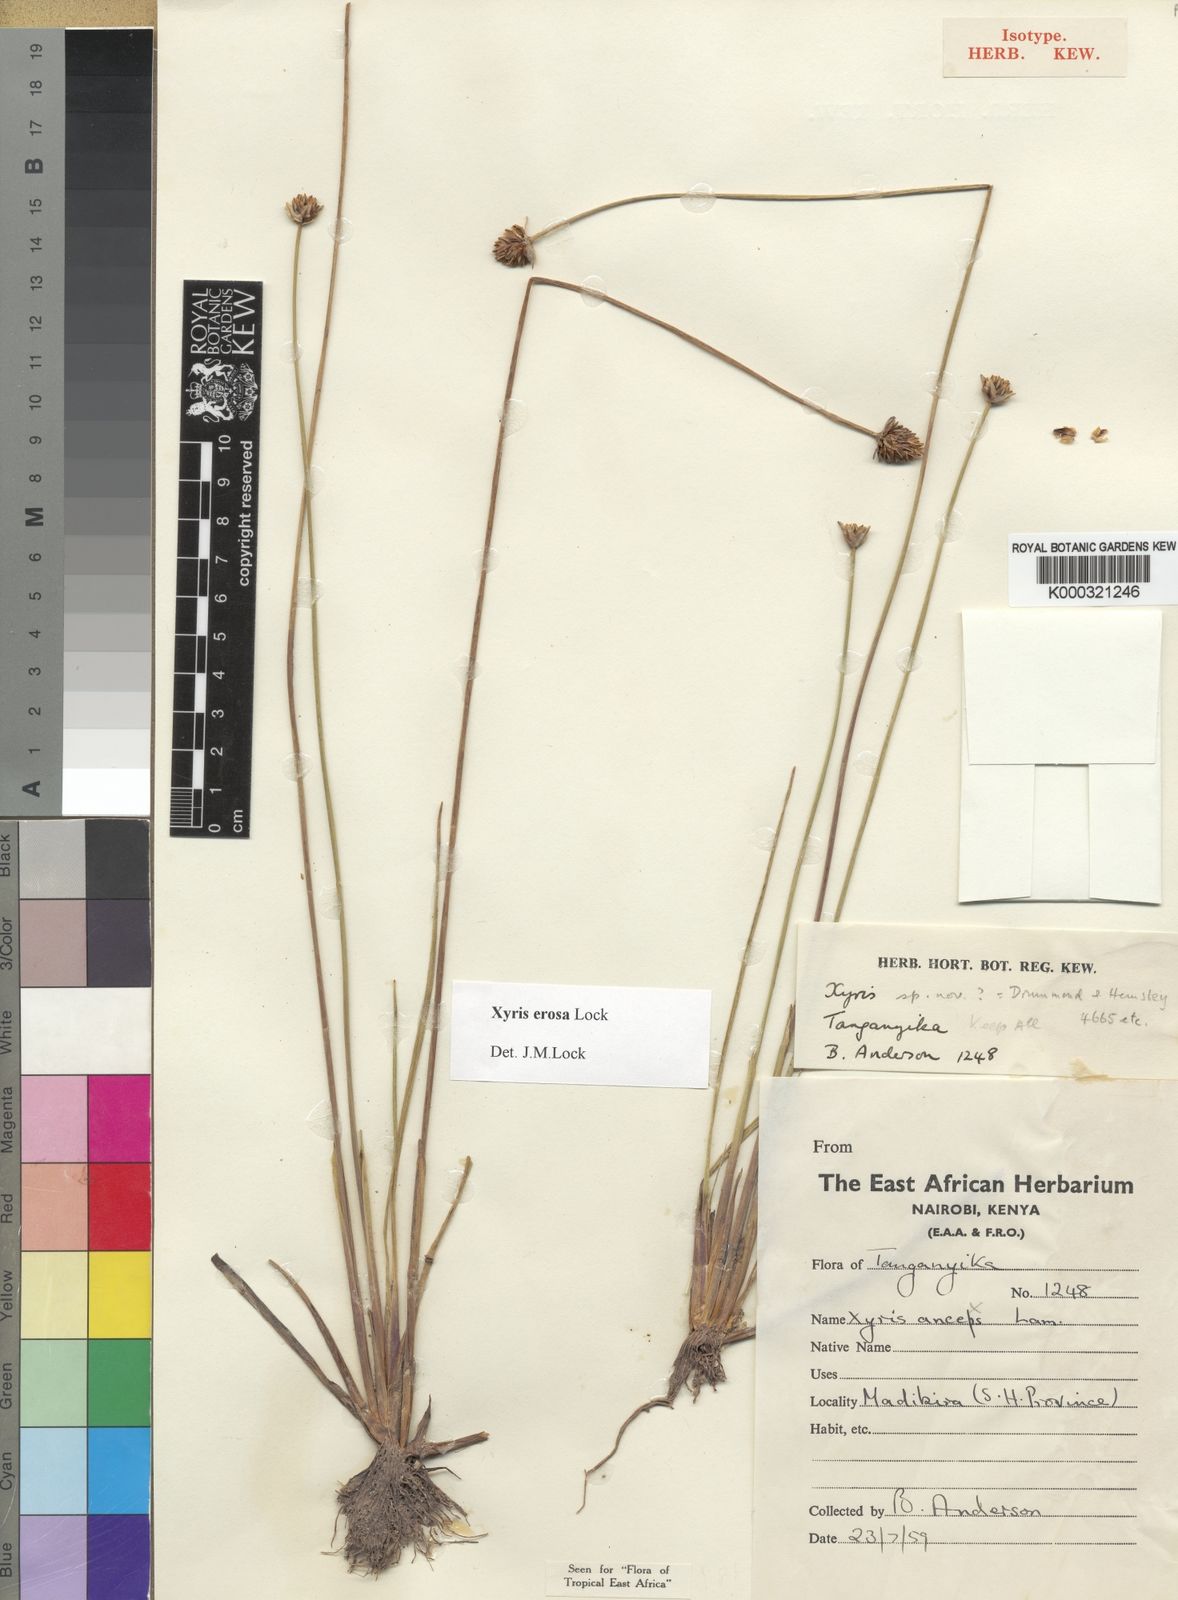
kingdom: Plantae
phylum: Tracheophyta
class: Liliopsida
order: Poales
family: Xyridaceae
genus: Xyris
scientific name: Xyris erosa
